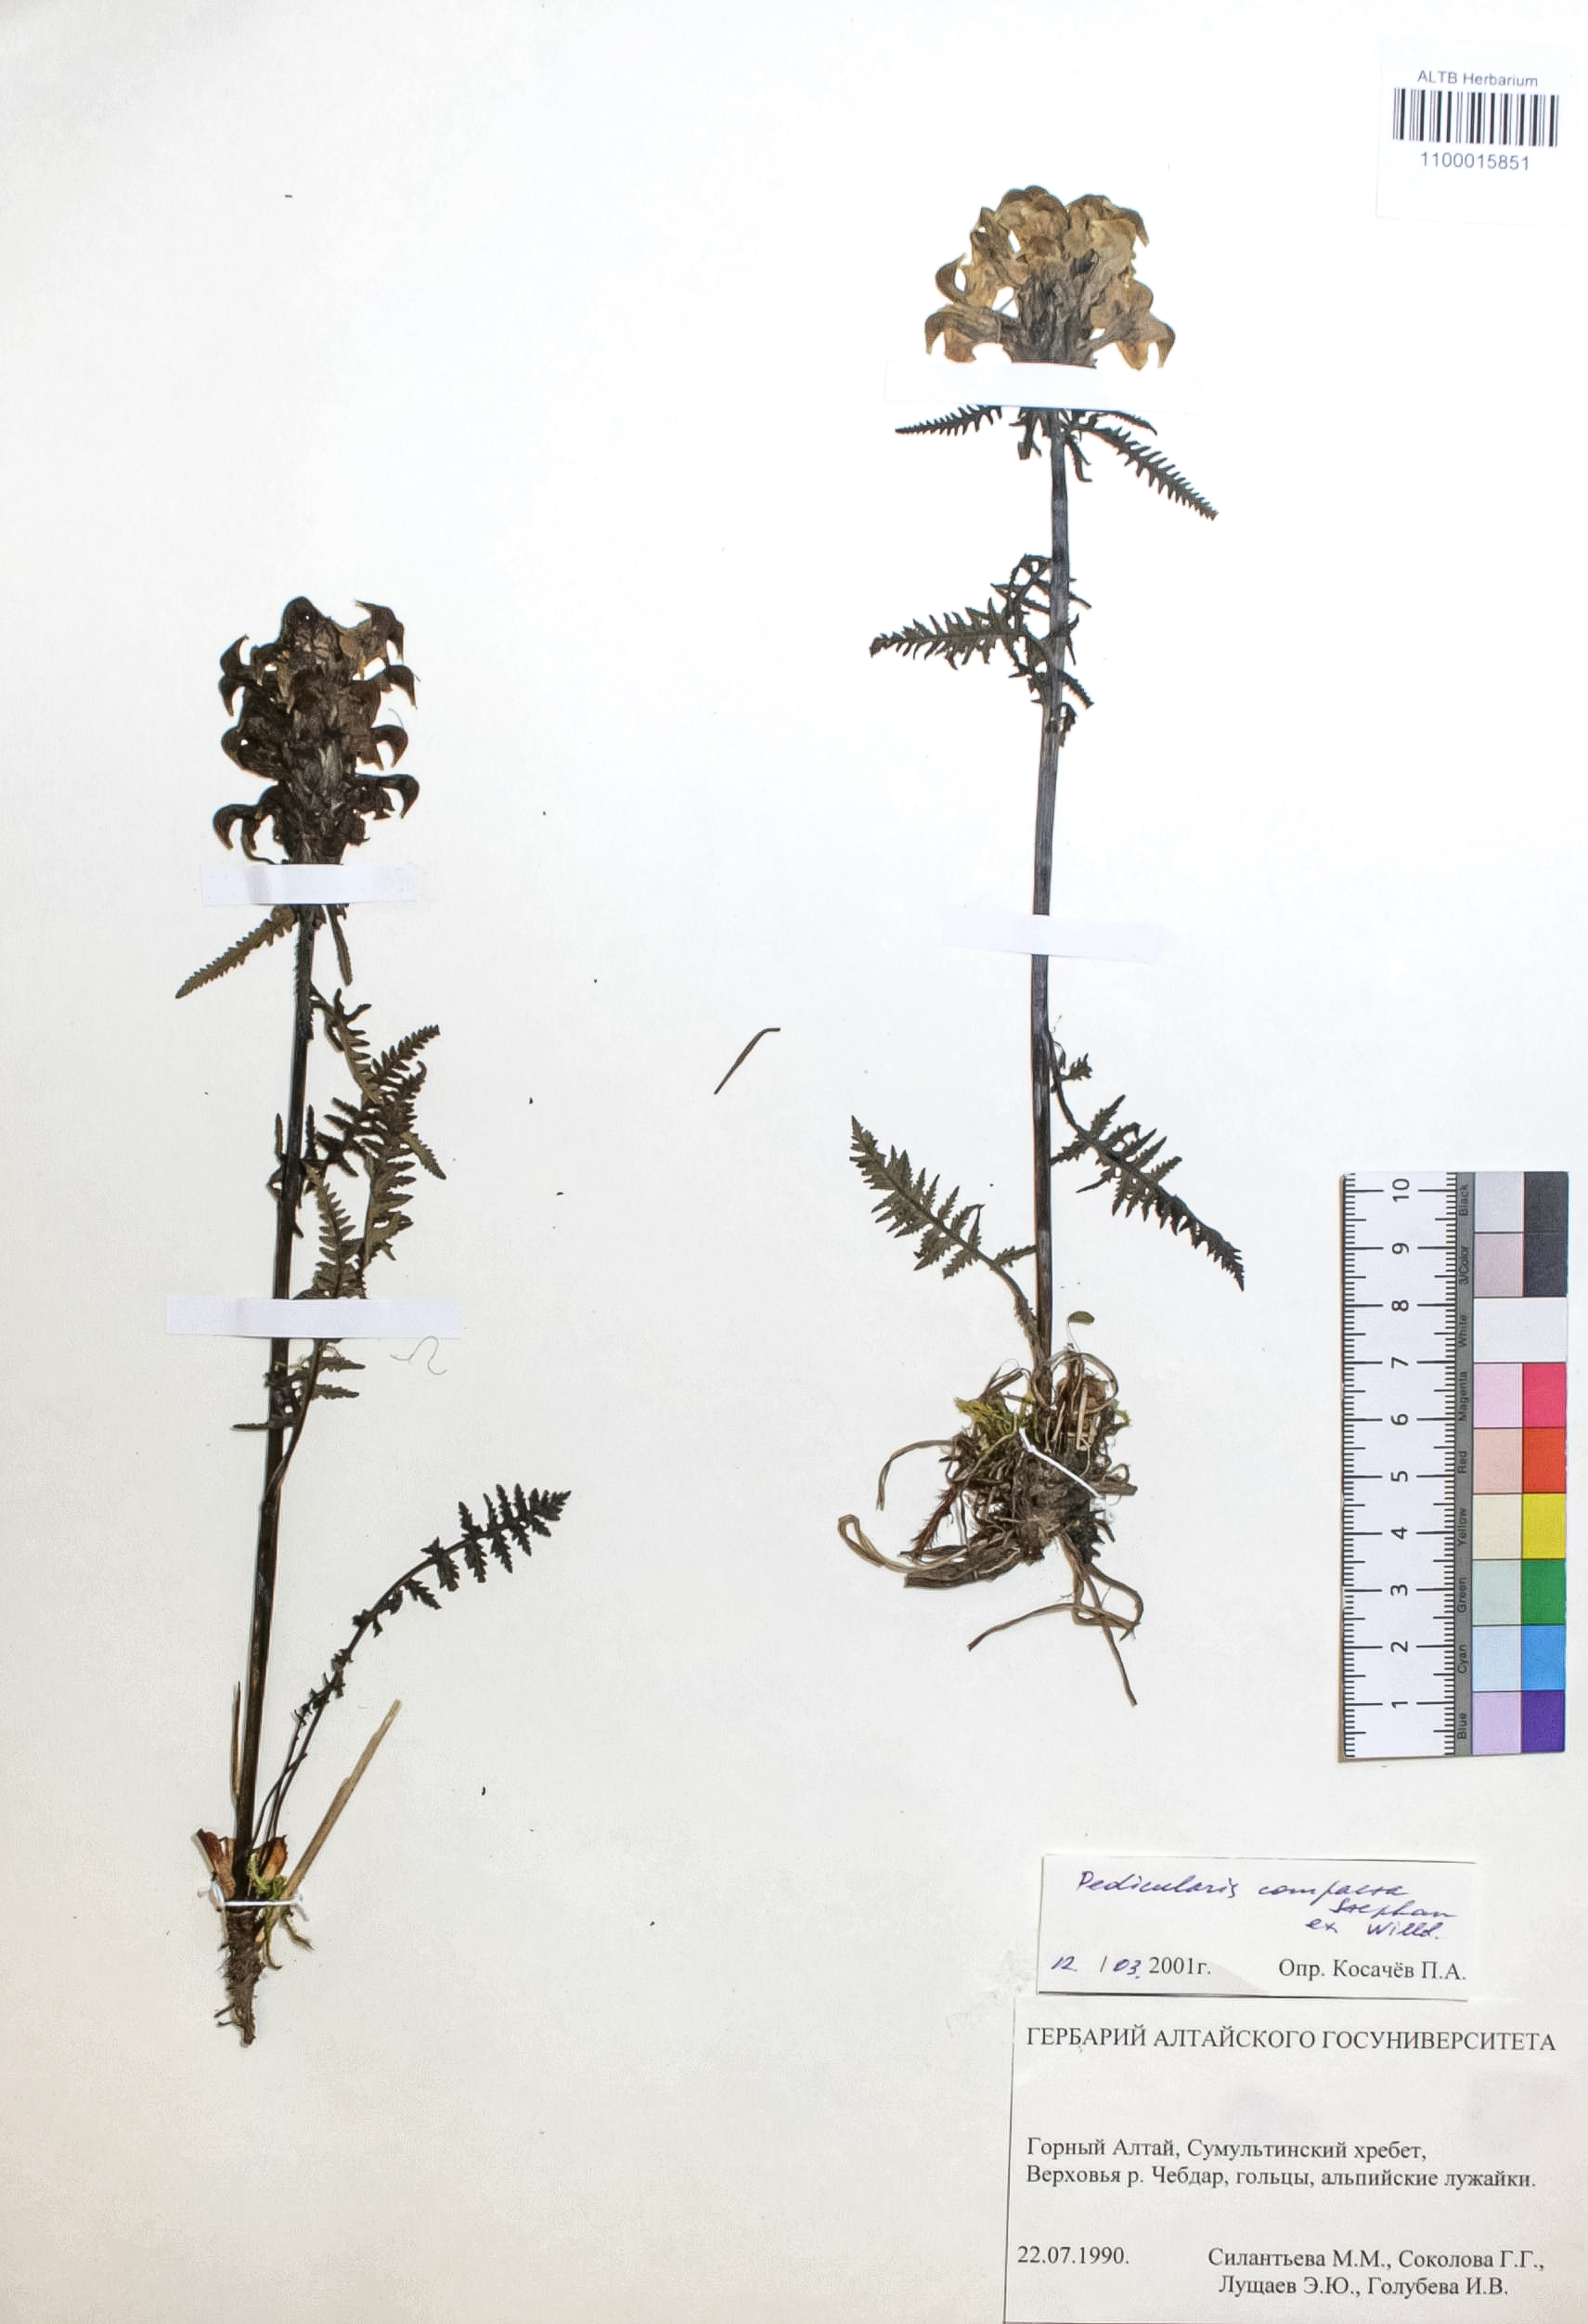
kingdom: Plantae
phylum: Tracheophyta
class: Magnoliopsida
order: Lamiales
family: Orobanchaceae
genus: Pedicularis
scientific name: Pedicularis compacta
